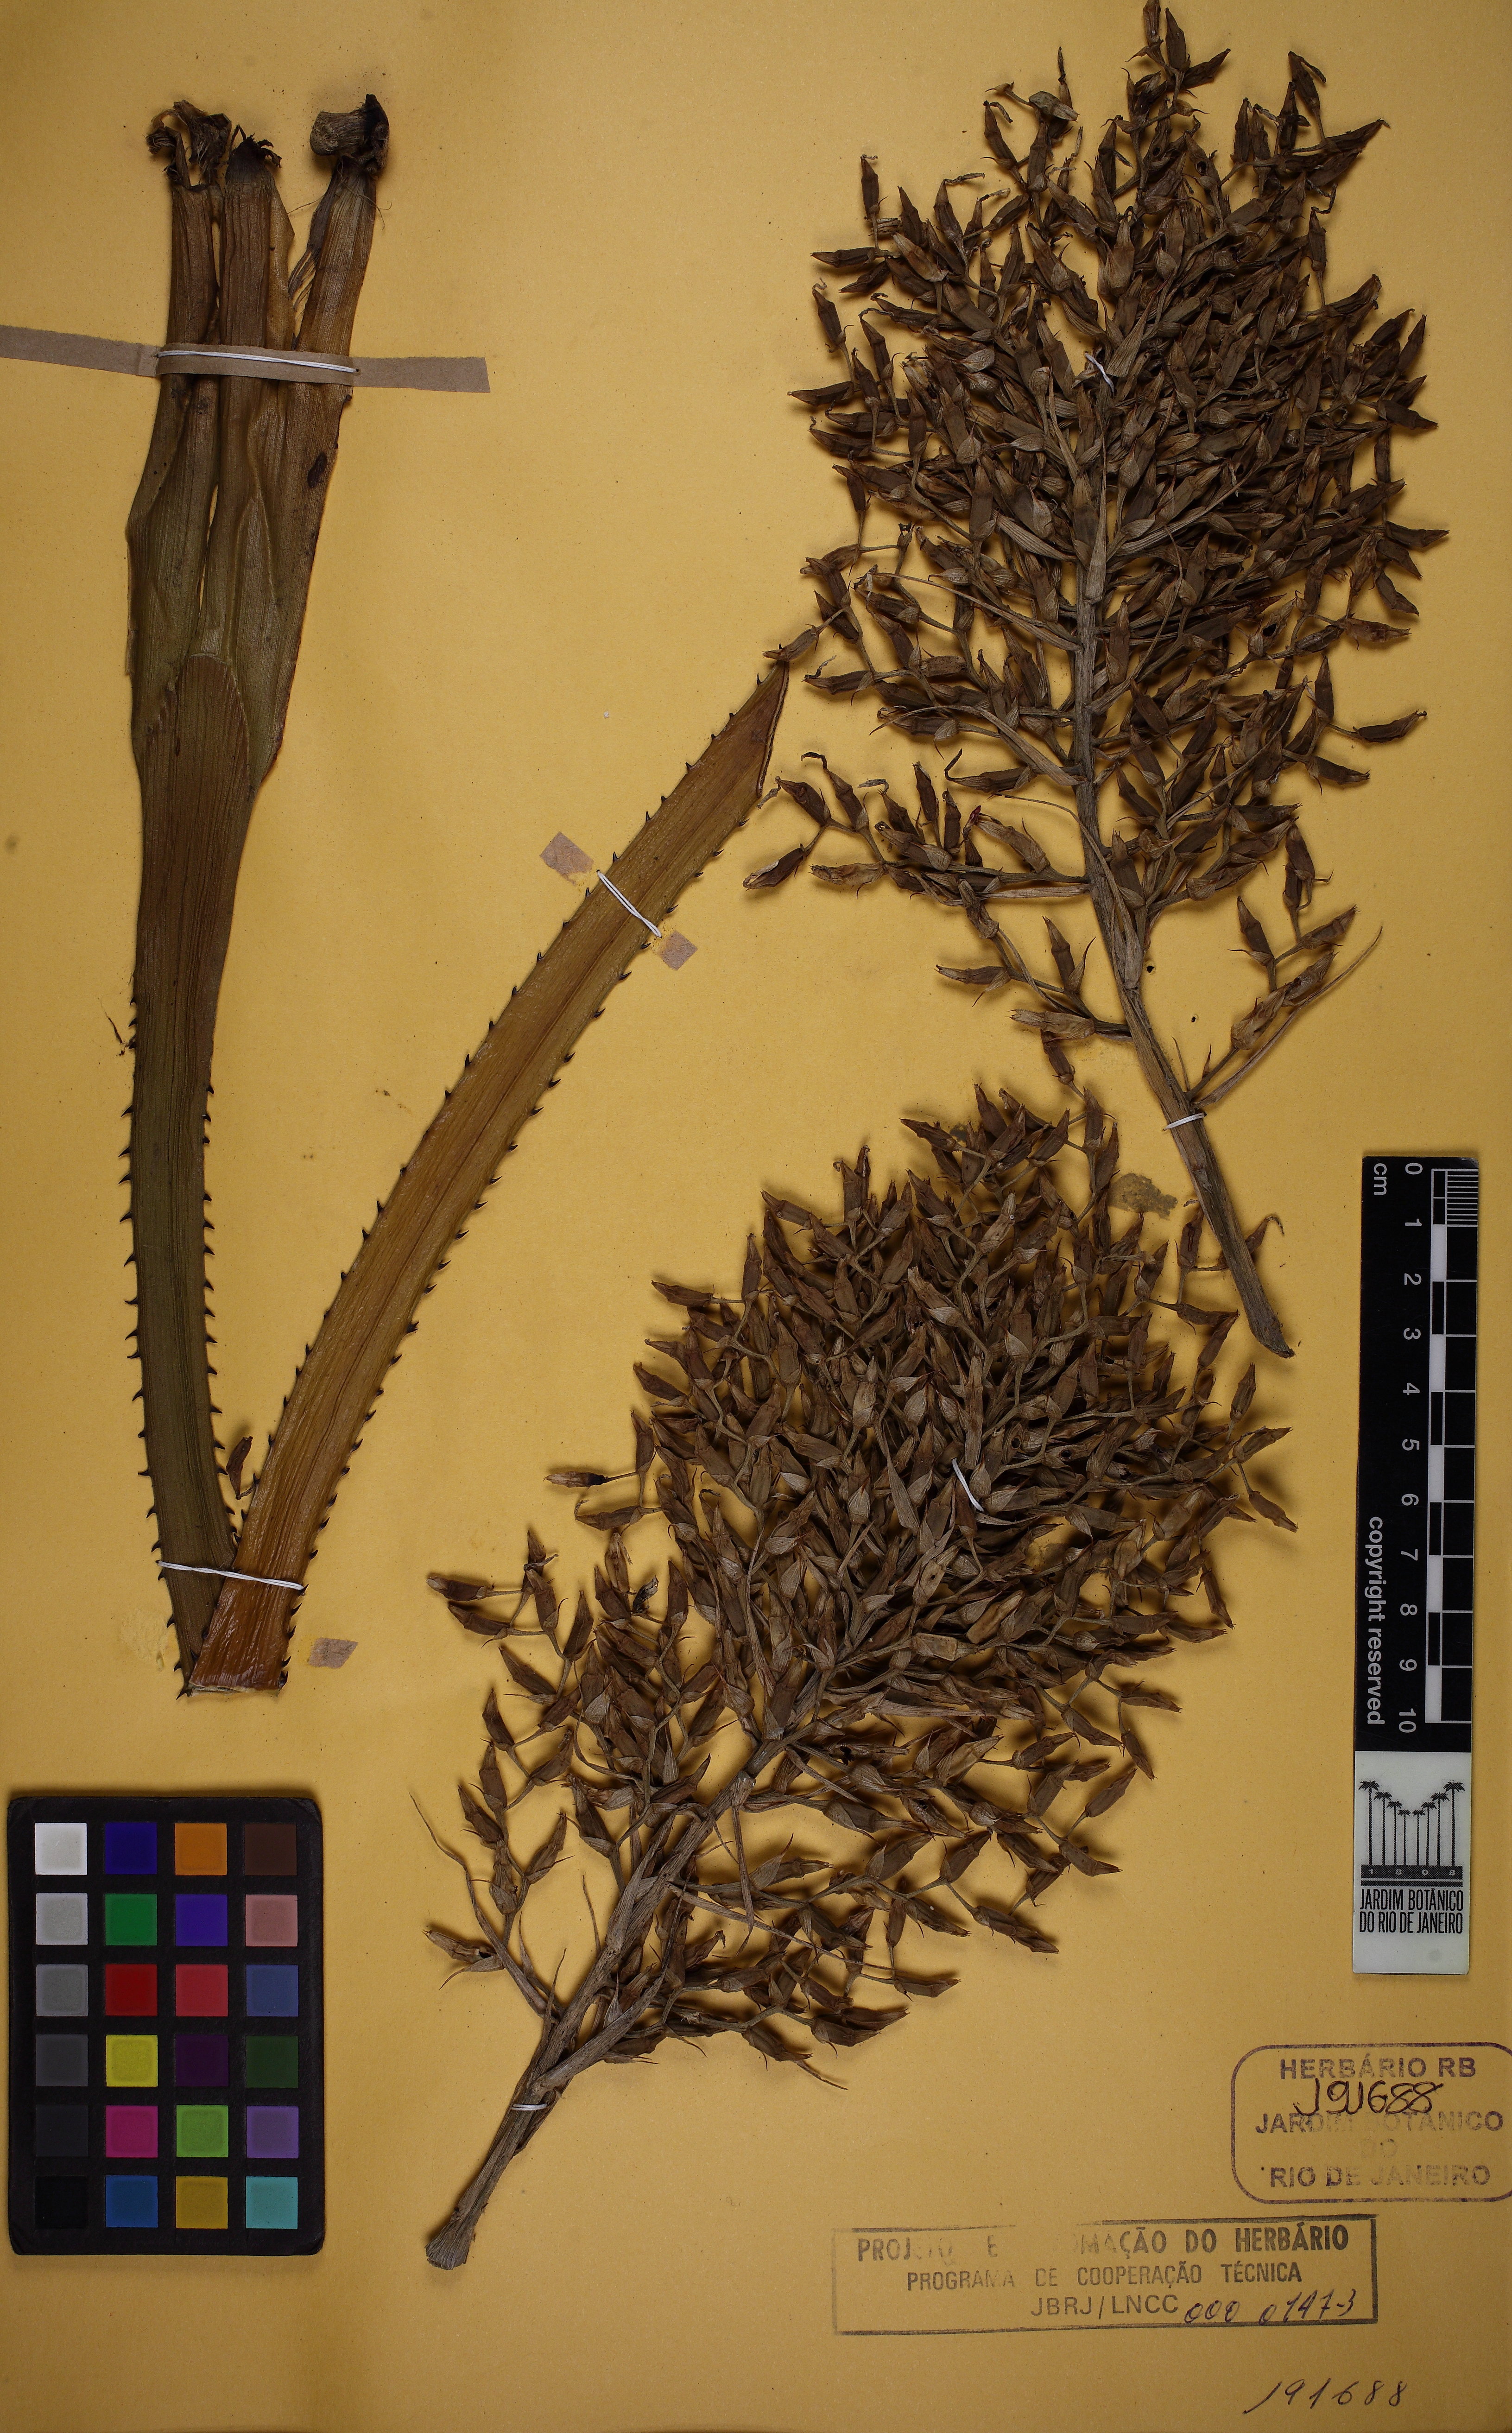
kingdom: Plantae
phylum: Tracheophyta
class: Liliopsida
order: Poales
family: Bromeliaceae
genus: Aechmea
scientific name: Aechmea purpureorosea
